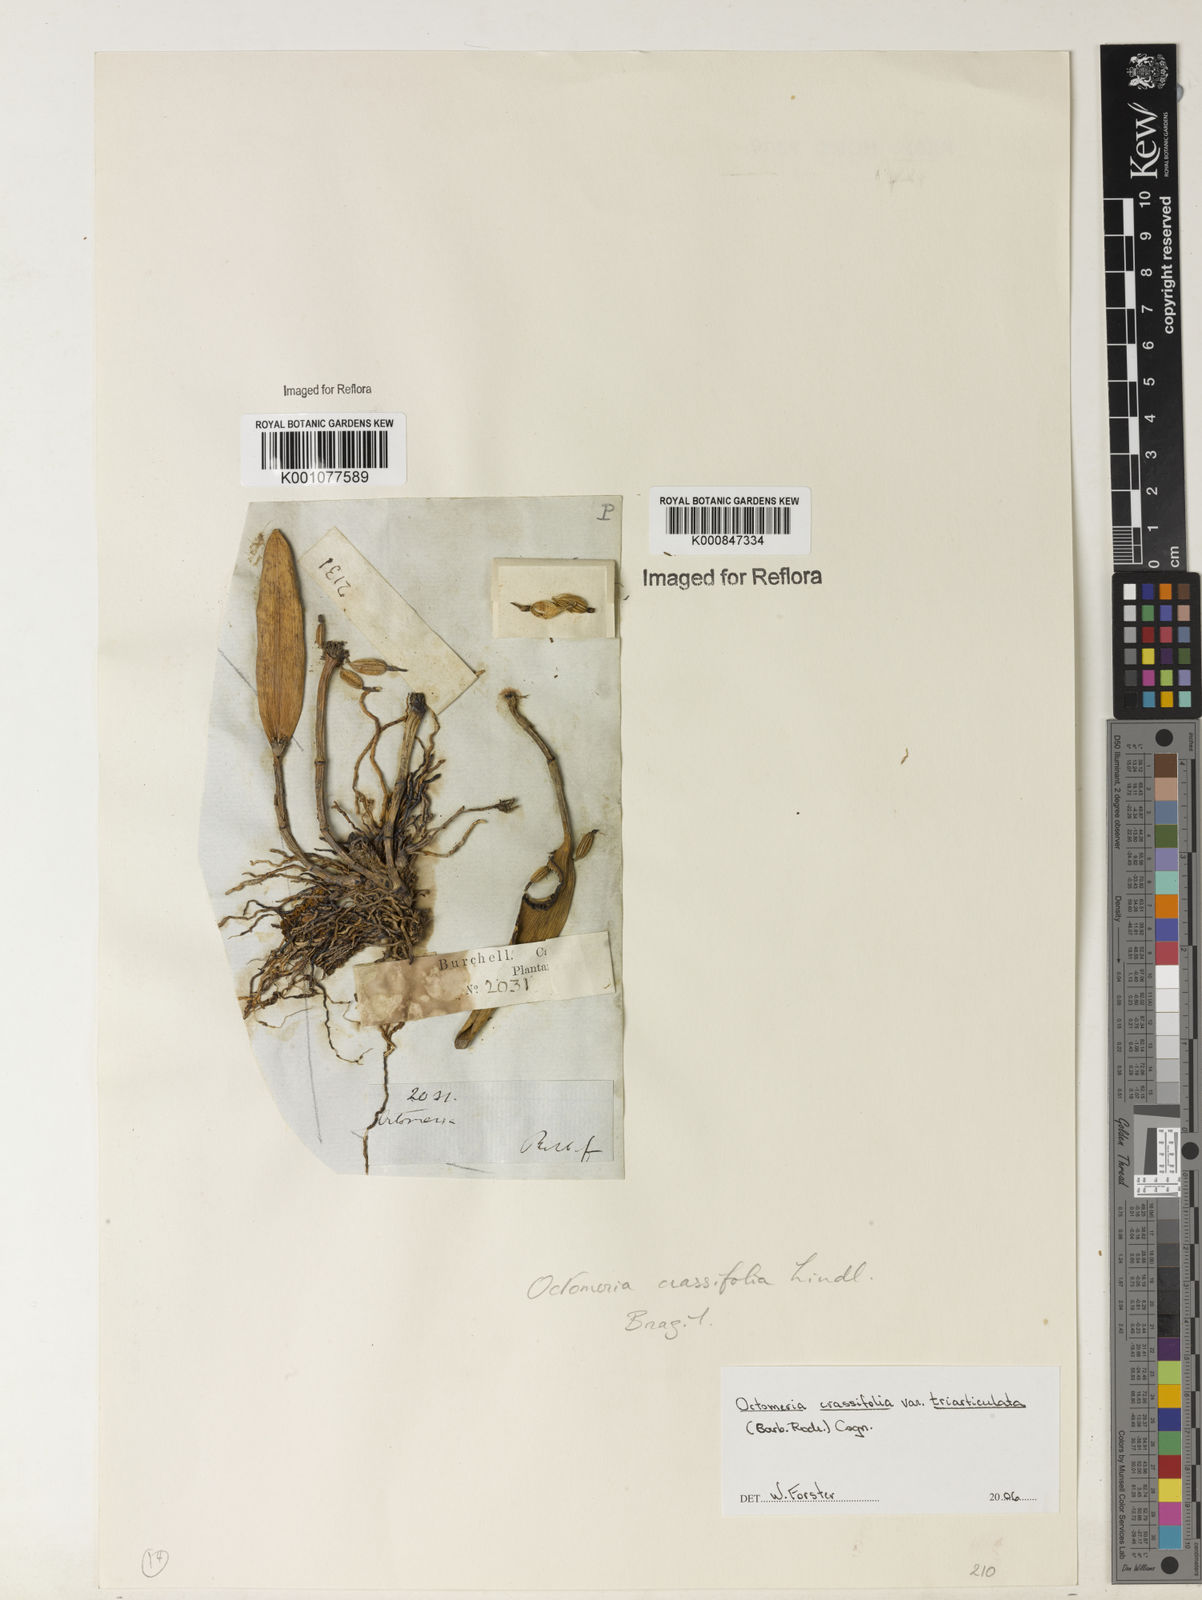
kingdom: Plantae
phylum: Tracheophyta
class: Liliopsida
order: Asparagales
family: Orchidaceae
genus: Octomeria
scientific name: Octomeria crassifolia
